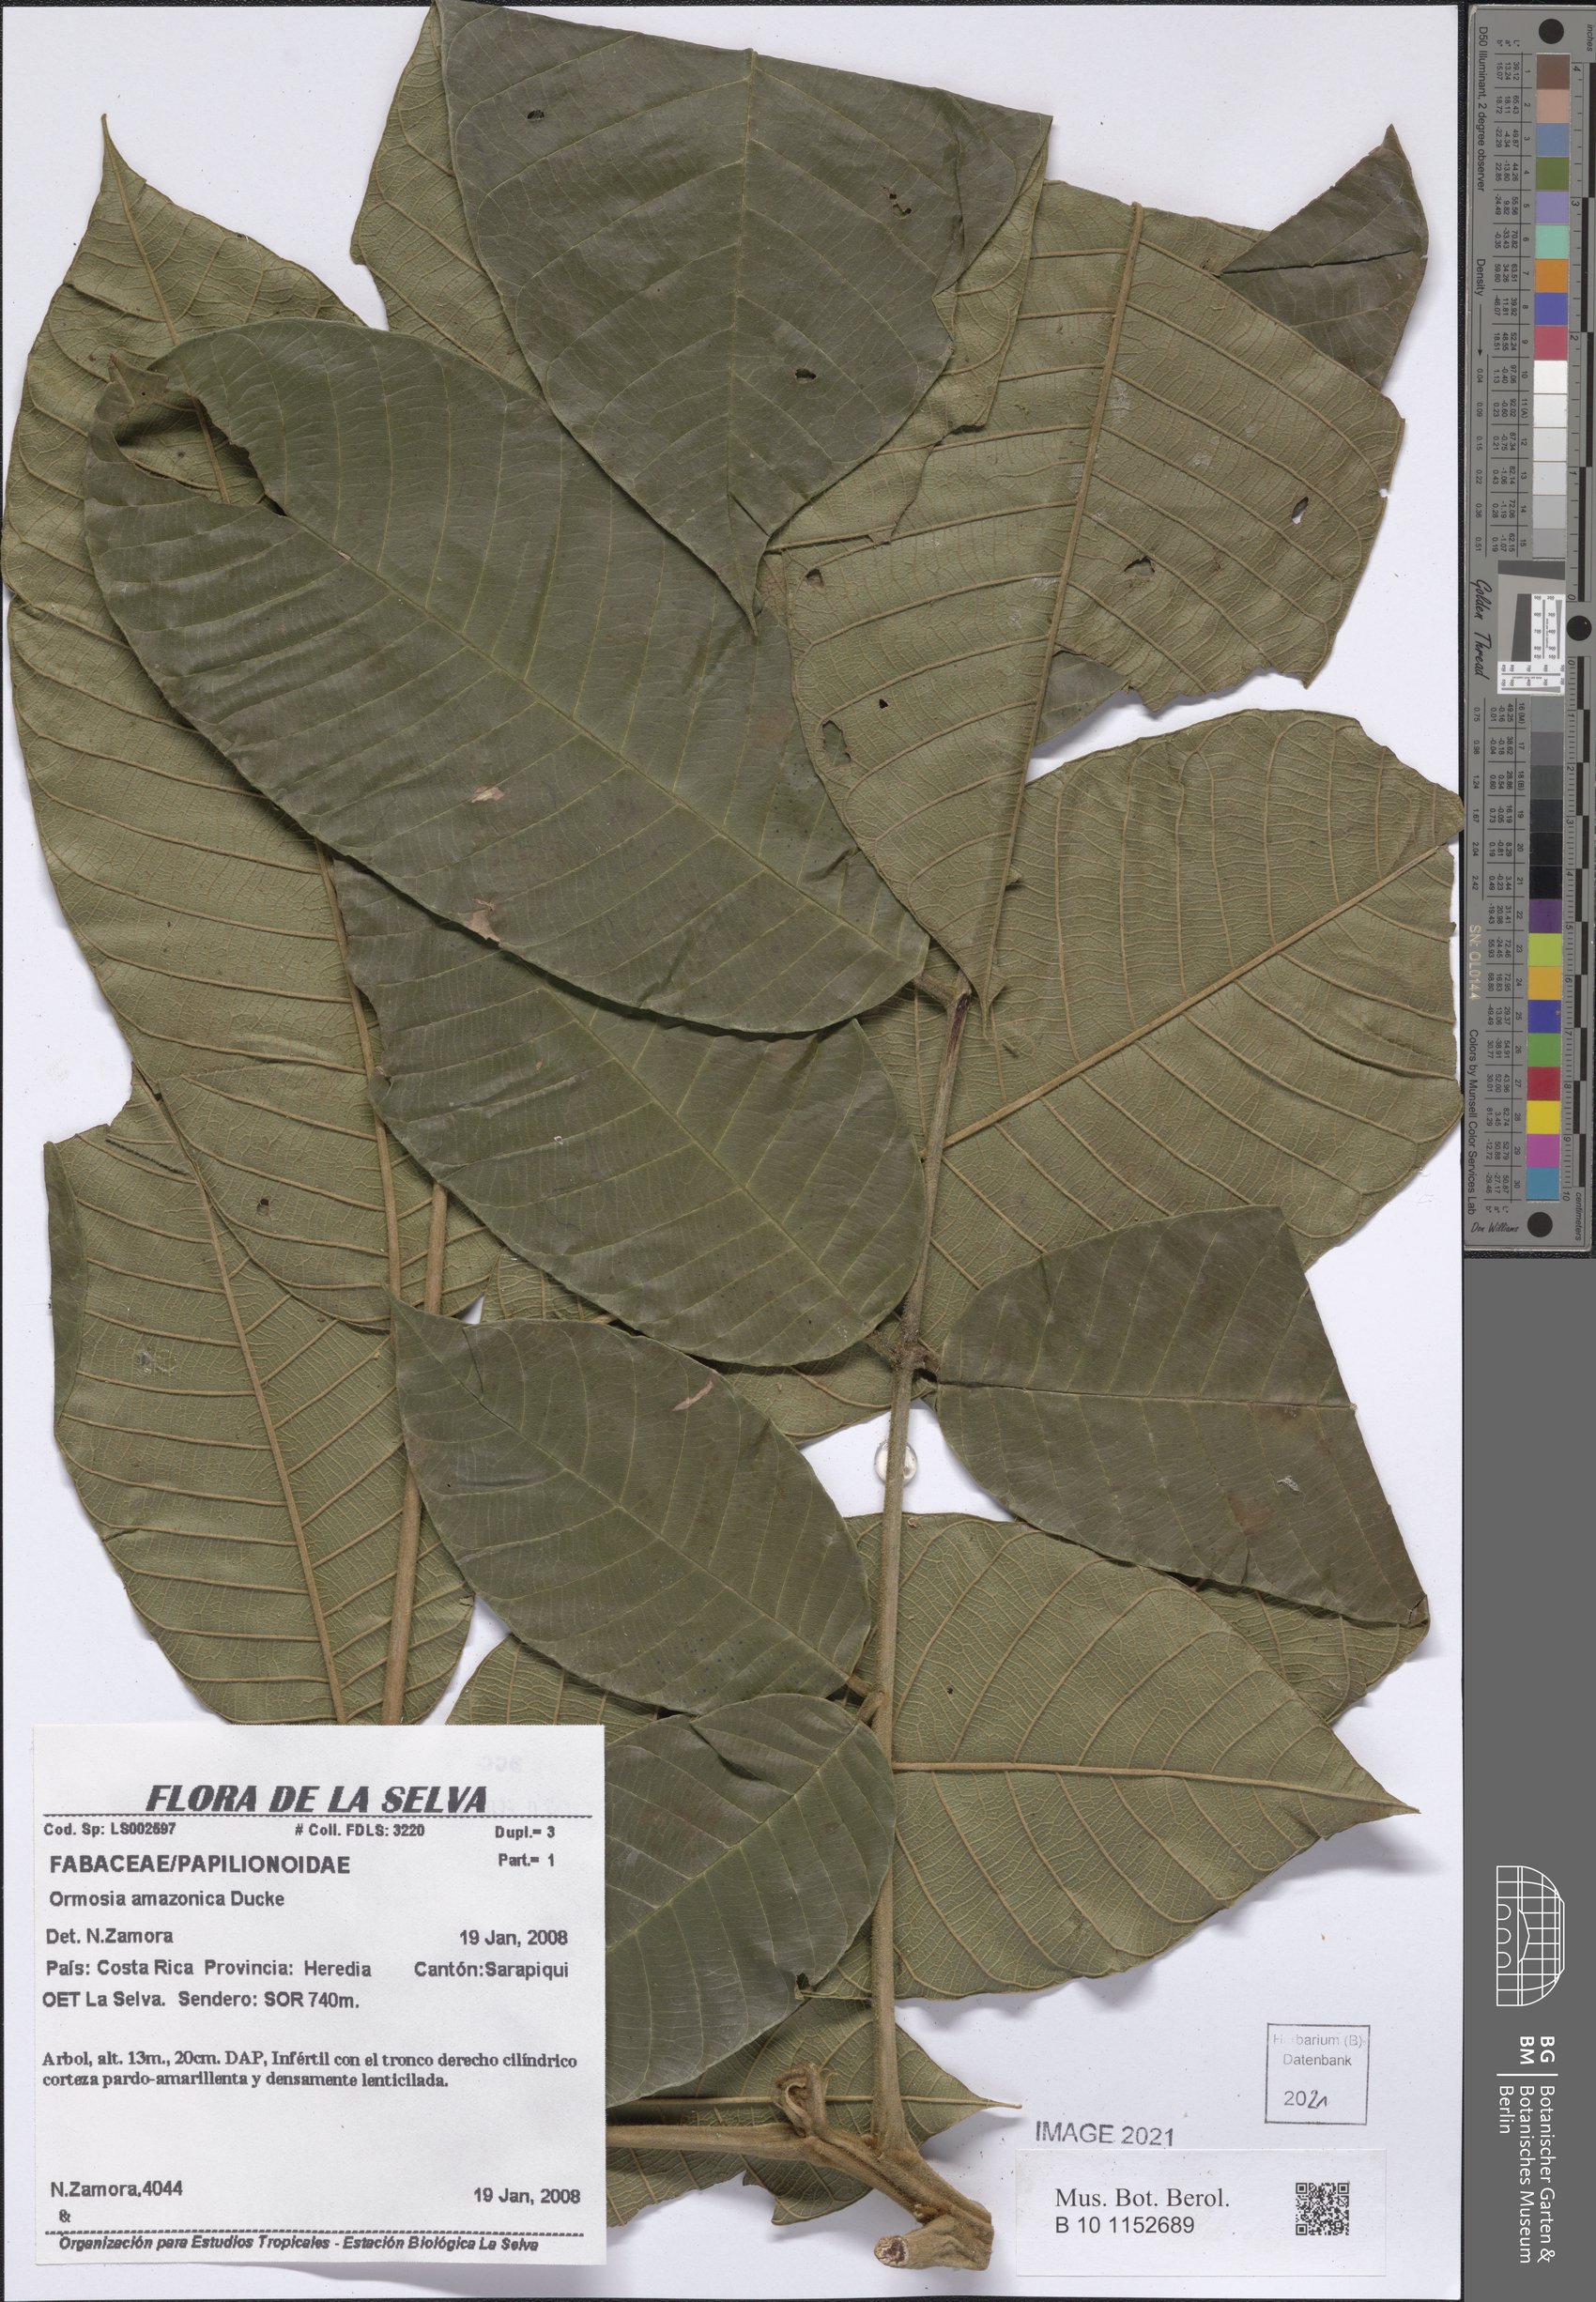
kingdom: Plantae
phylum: Tracheophyta
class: Magnoliopsida
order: Fabales
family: Fabaceae
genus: Ormosia
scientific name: Ormosia amazonica
